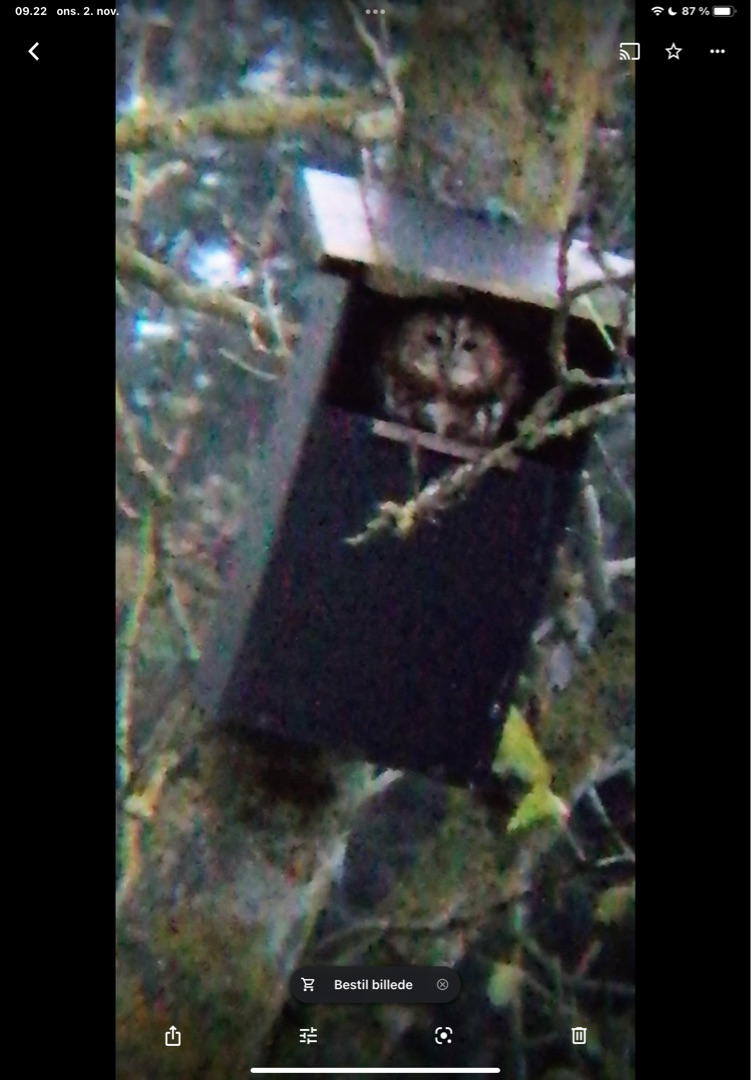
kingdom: Animalia
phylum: Chordata
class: Aves
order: Strigiformes
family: Strigidae
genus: Strix
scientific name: Strix aluco
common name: Natugle
